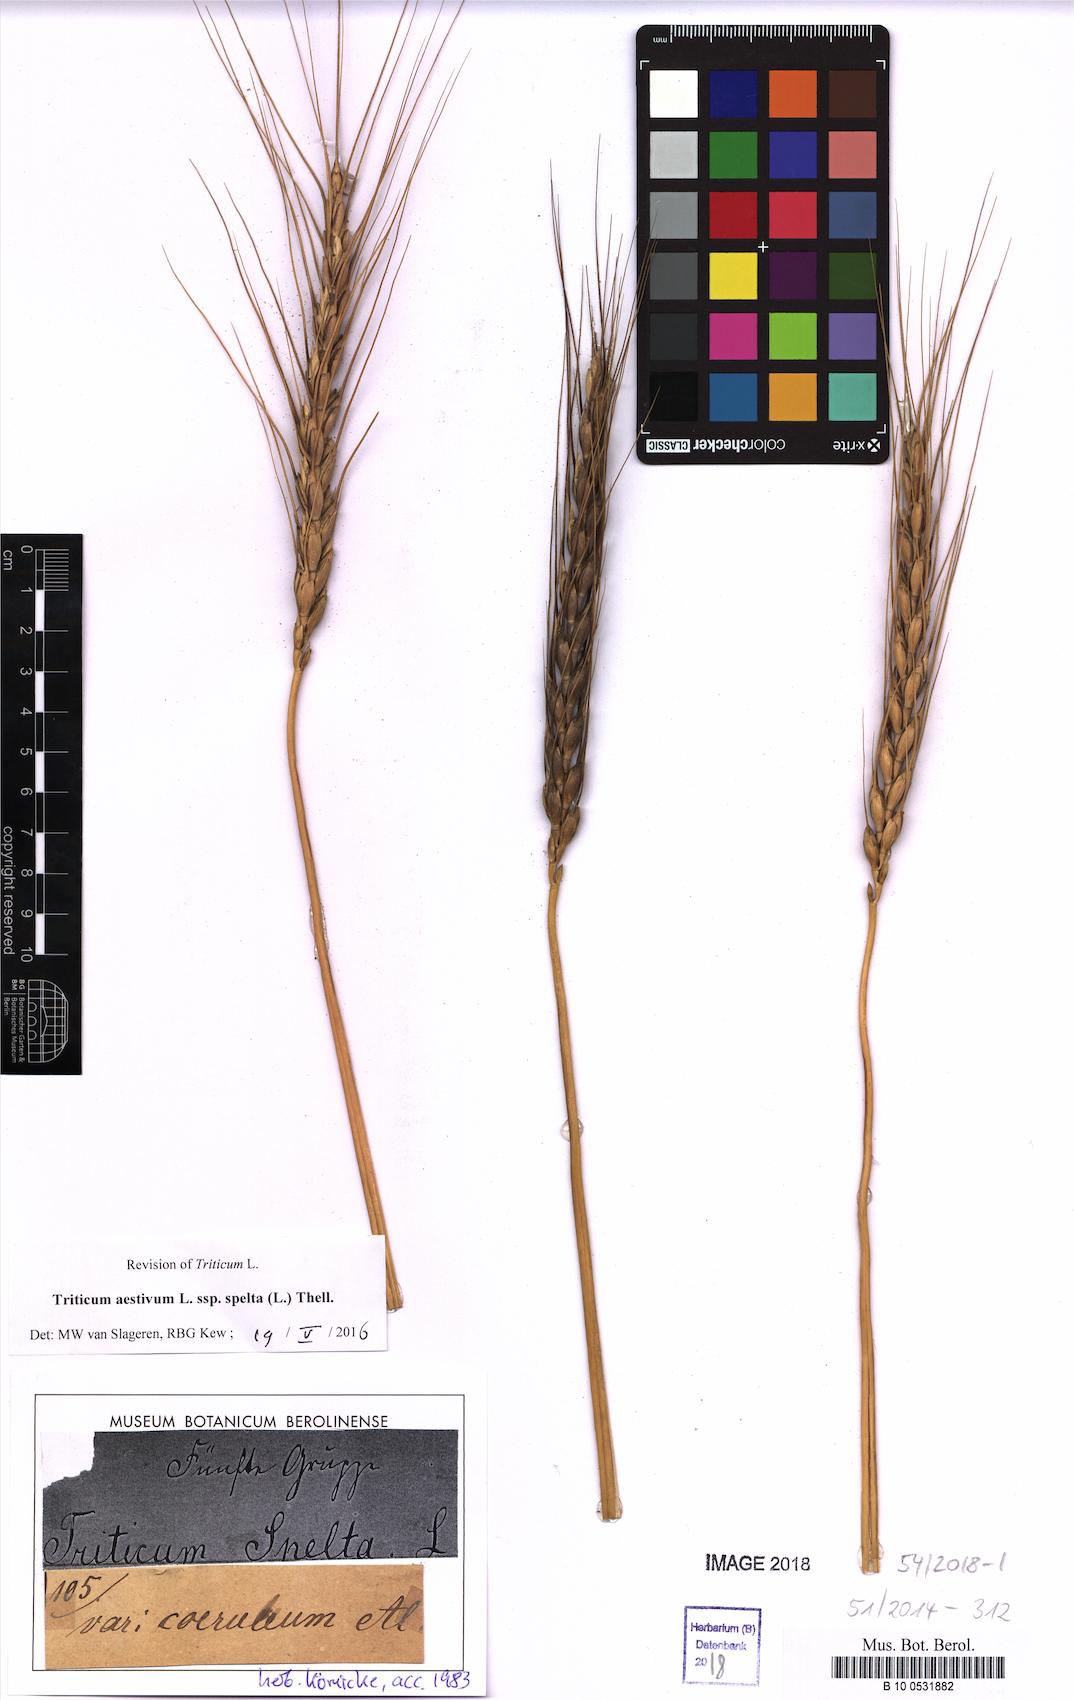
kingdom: Plantae
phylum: Tracheophyta
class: Liliopsida
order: Poales
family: Poaceae
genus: Triticum
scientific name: Triticum aestivum
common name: Common wheat
